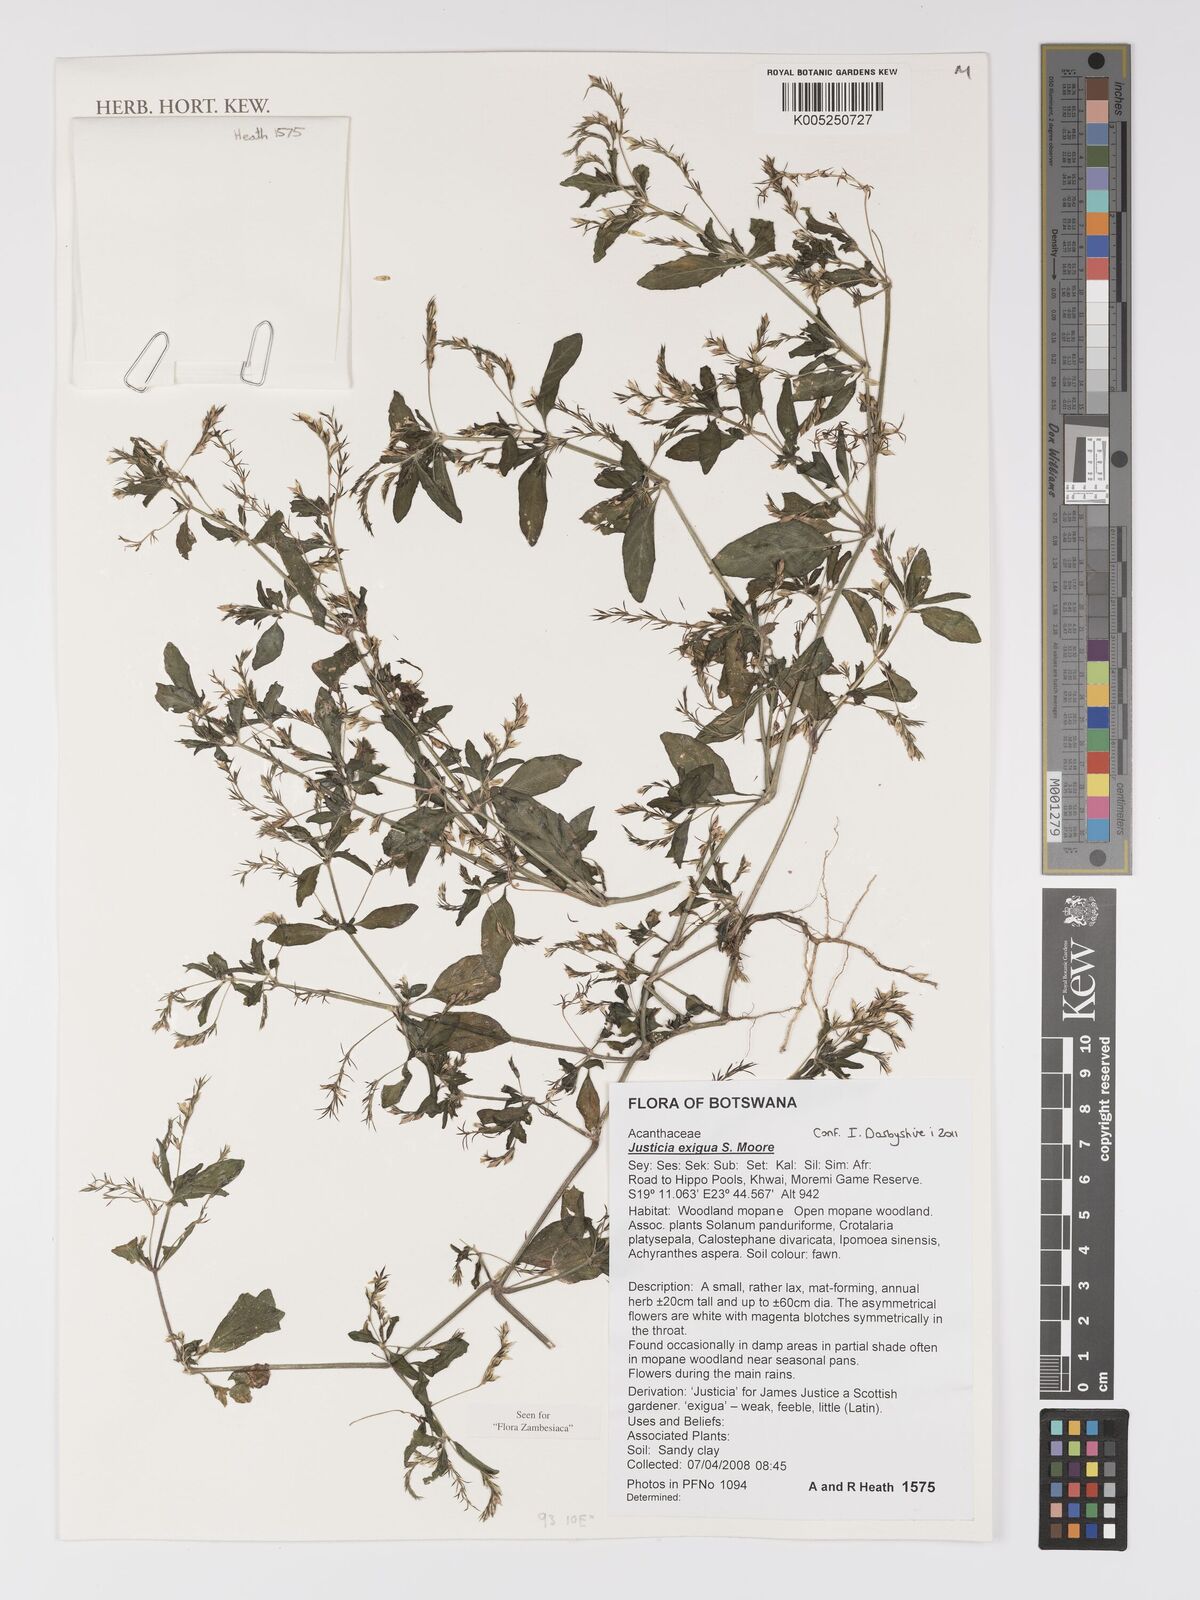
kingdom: Plantae
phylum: Tracheophyta
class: Magnoliopsida
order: Lamiales
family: Acanthaceae
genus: Justicia
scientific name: Justicia exigua
